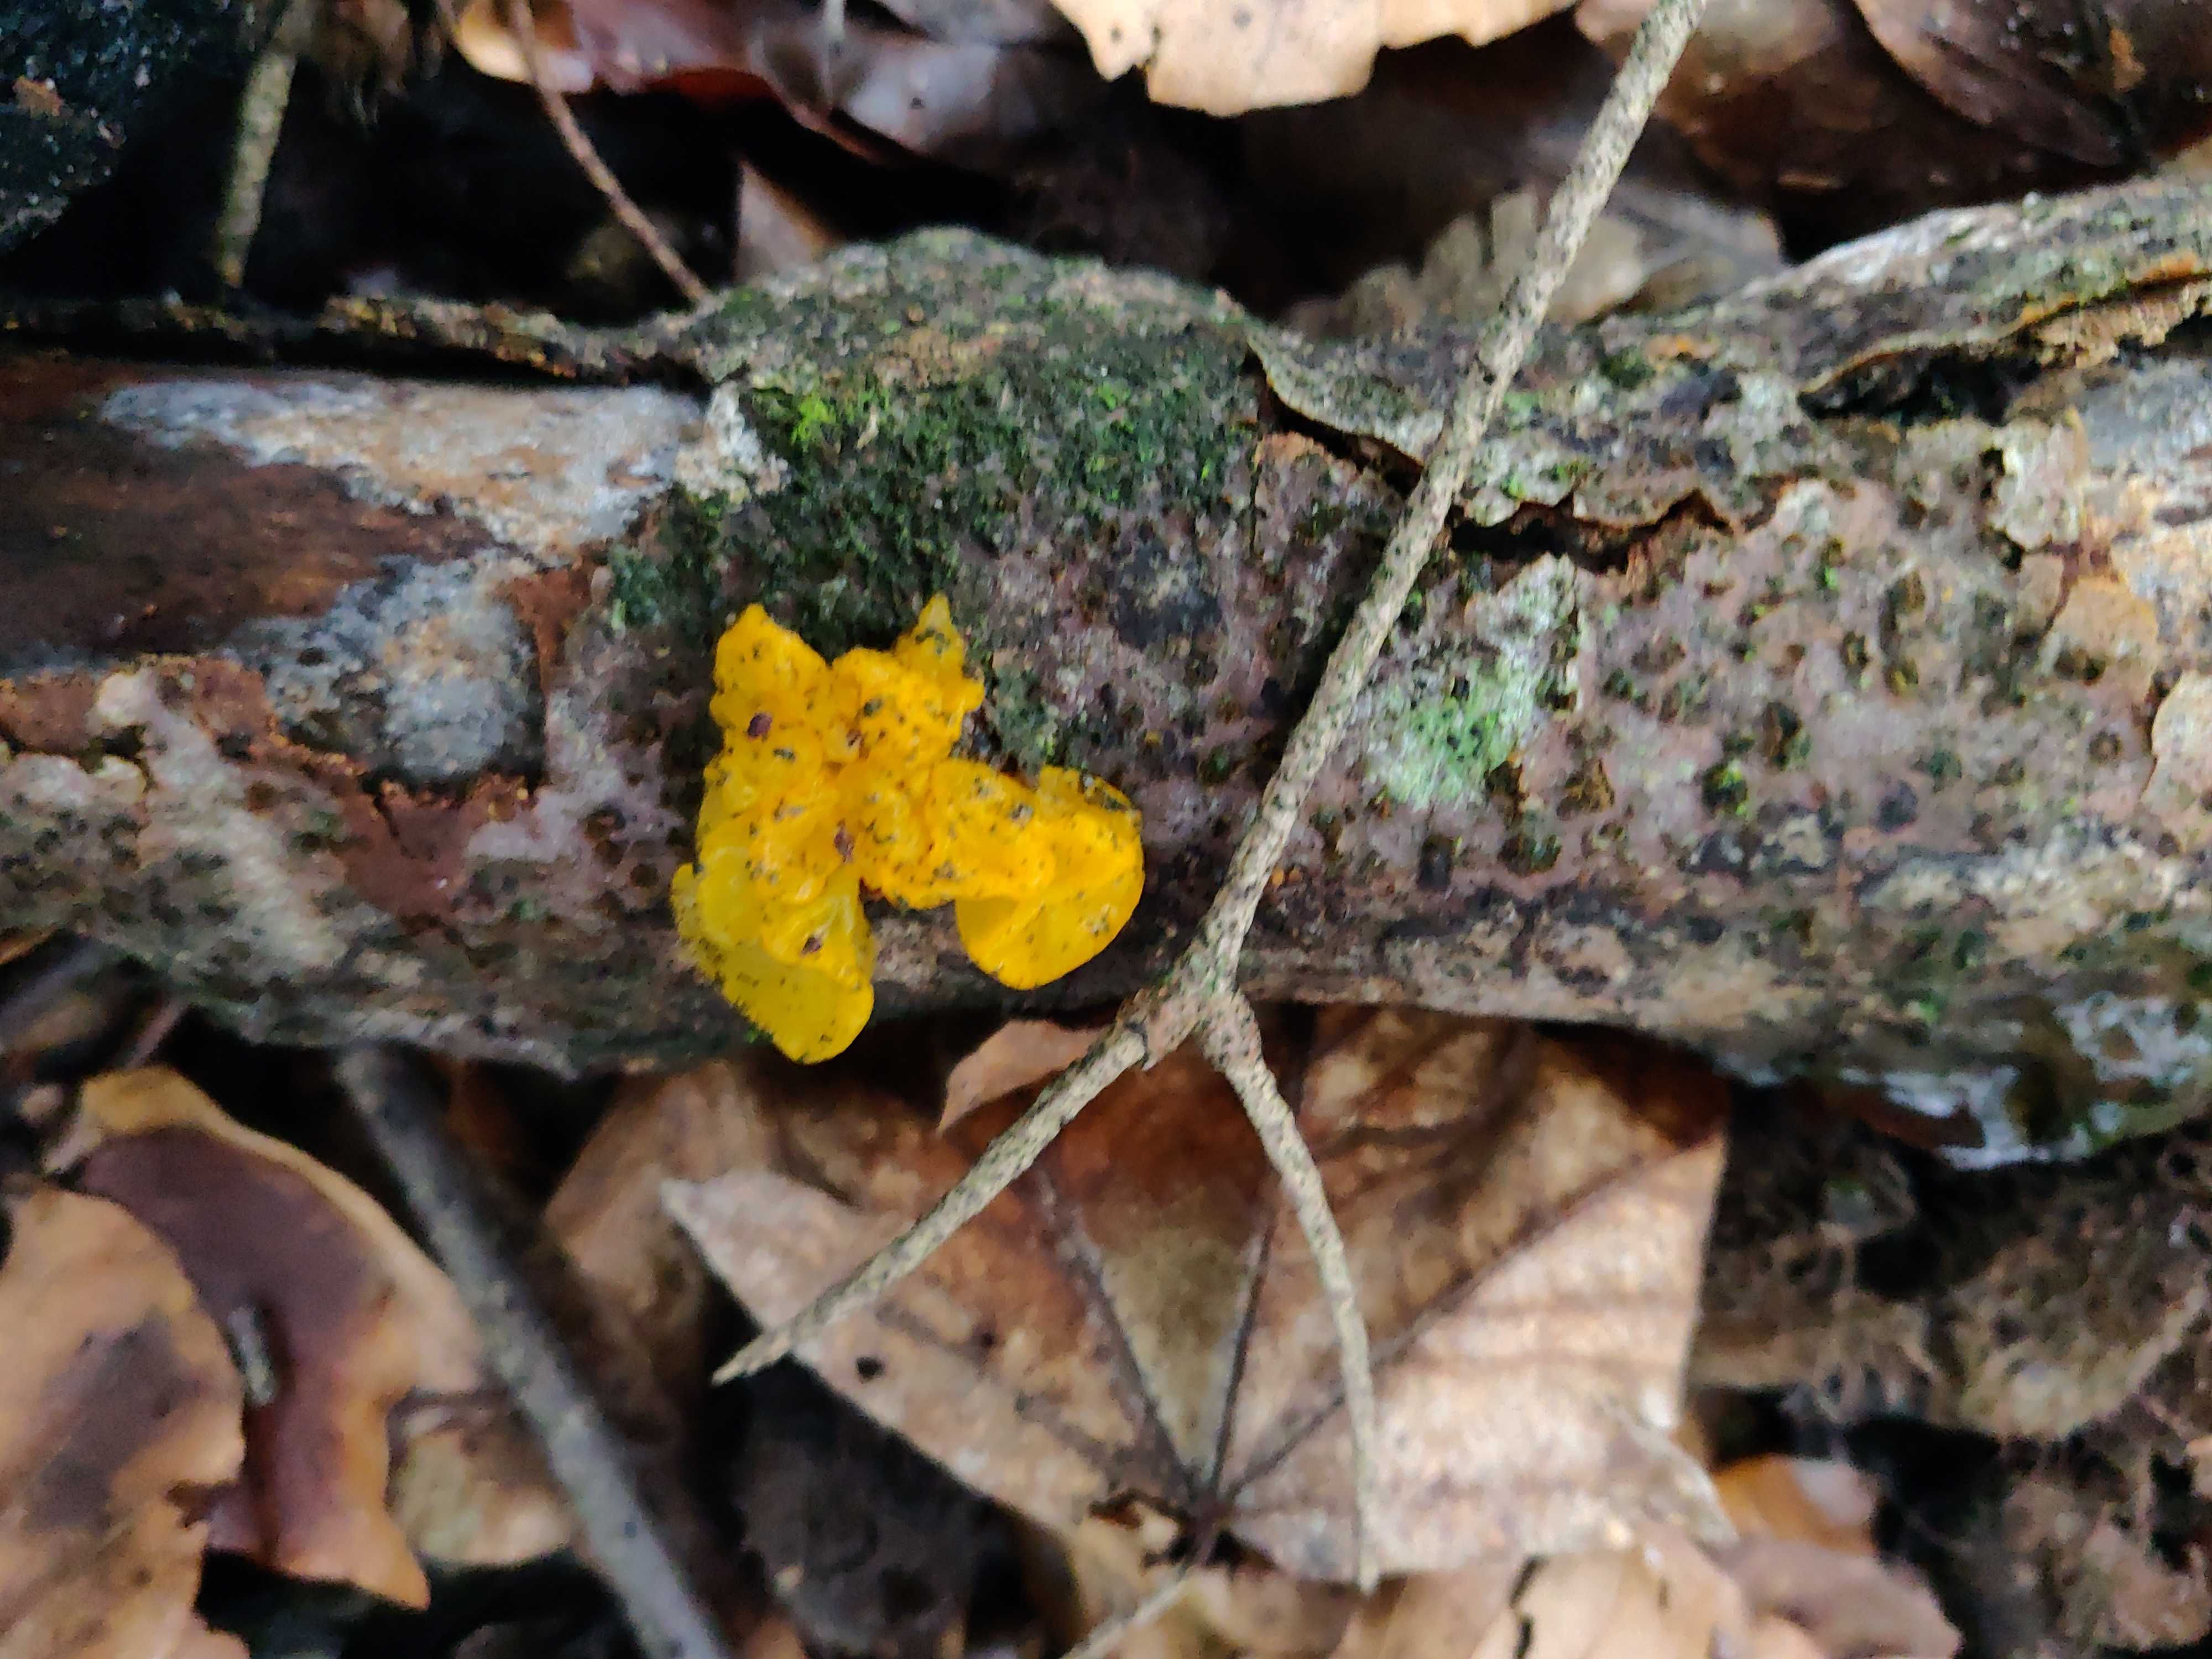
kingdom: Fungi
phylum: Basidiomycota
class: Tremellomycetes
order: Tremellales
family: Tremellaceae
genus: Tremella
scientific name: Tremella mesenterica
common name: gul bævresvamp
